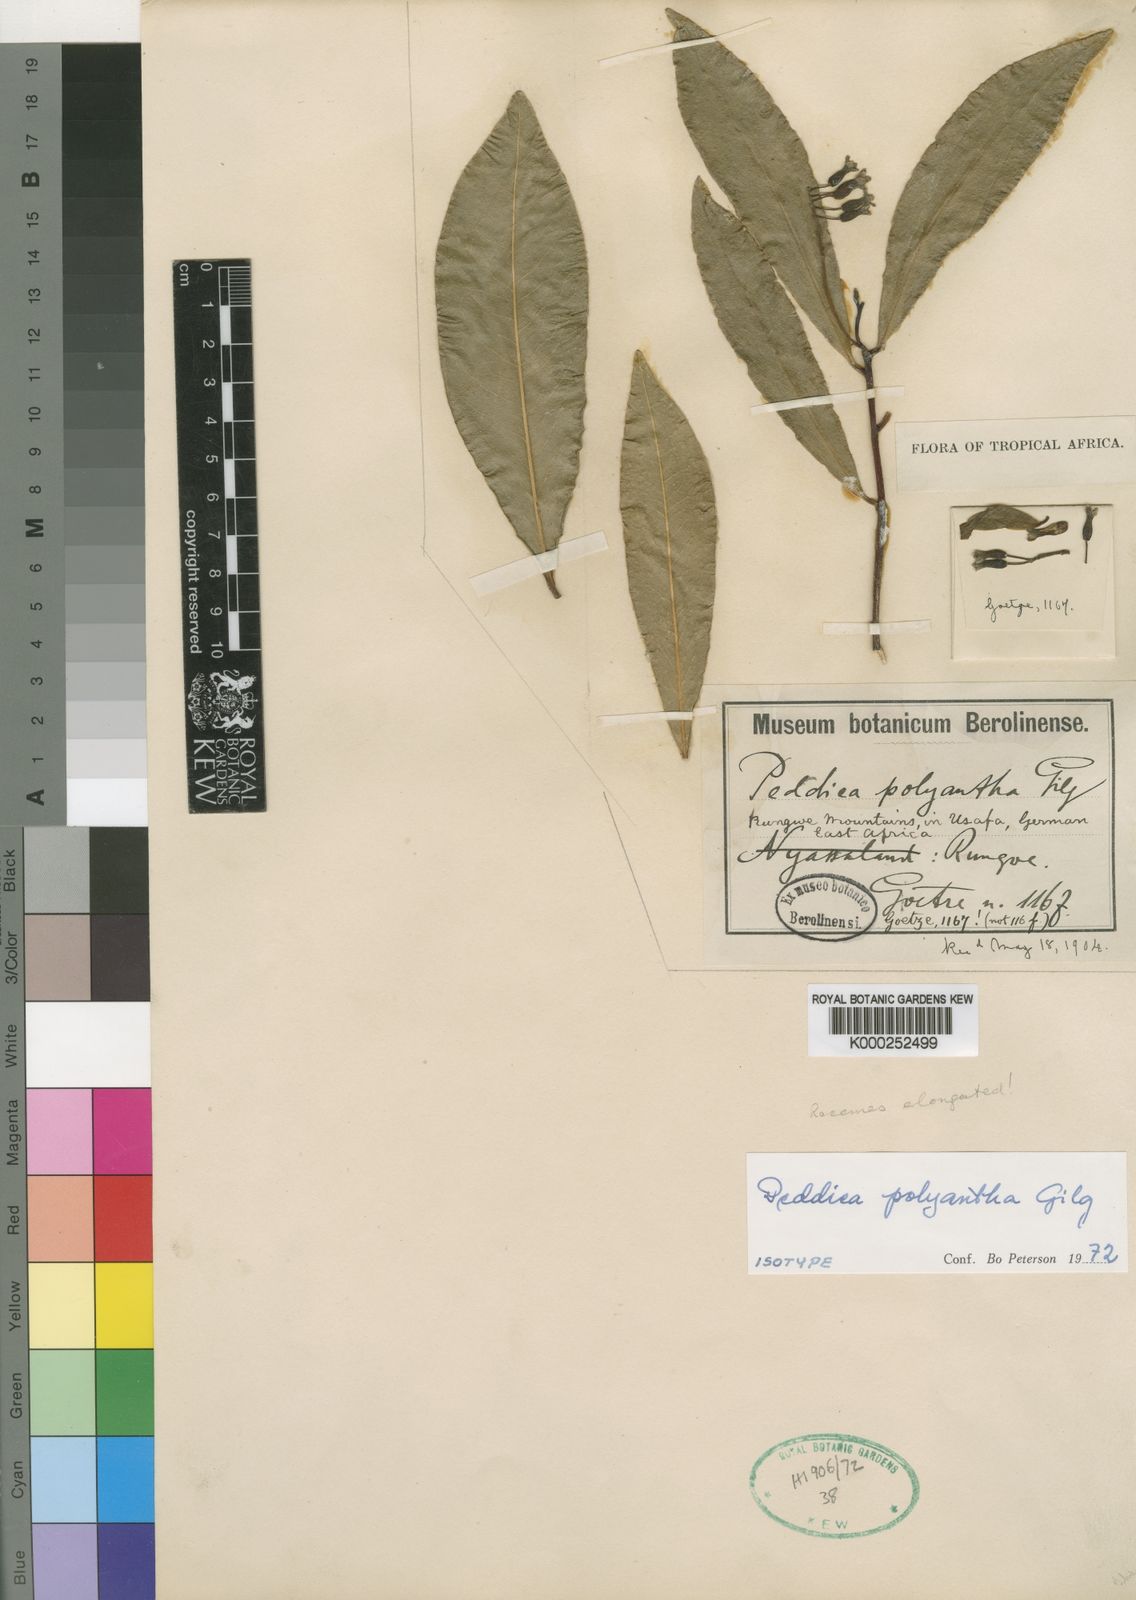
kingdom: Plantae
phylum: Tracheophyta
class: Magnoliopsida
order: Malvales
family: Thymelaeaceae
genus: Peddiea
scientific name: Peddiea polyantha
